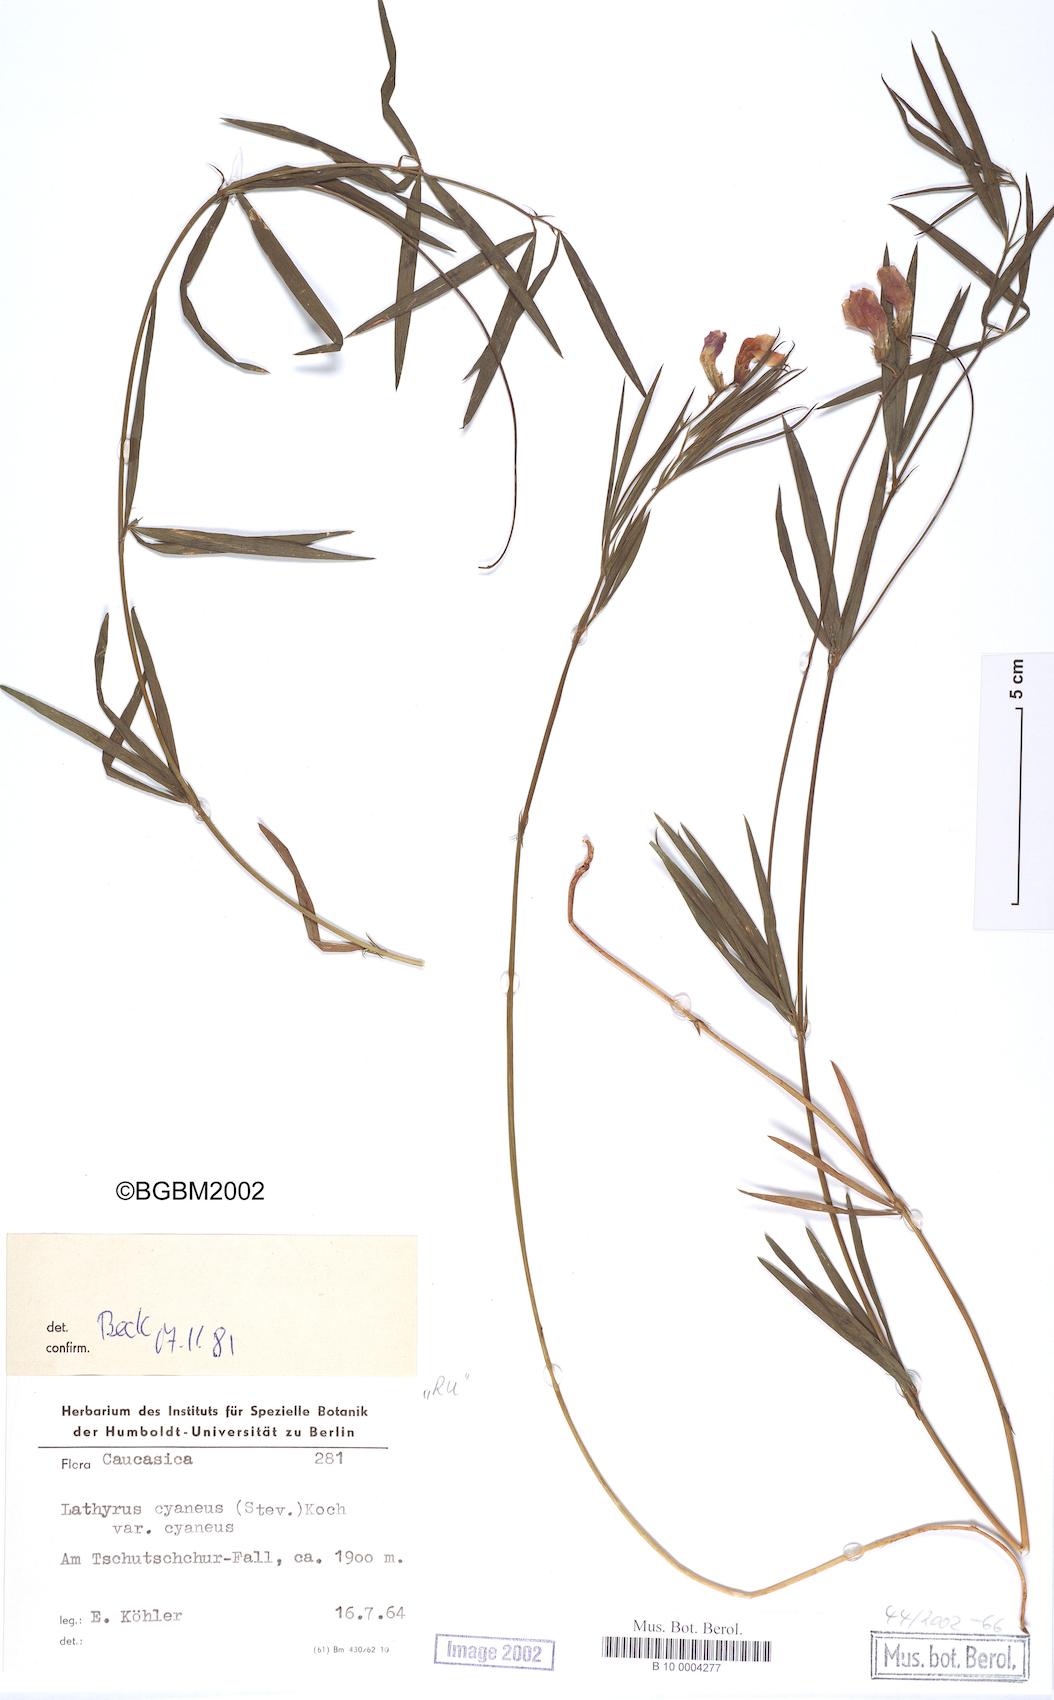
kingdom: Plantae
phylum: Tracheophyta
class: Magnoliopsida
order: Fabales
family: Fabaceae
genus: Lathyrus
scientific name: Lathyrus cyaneus
